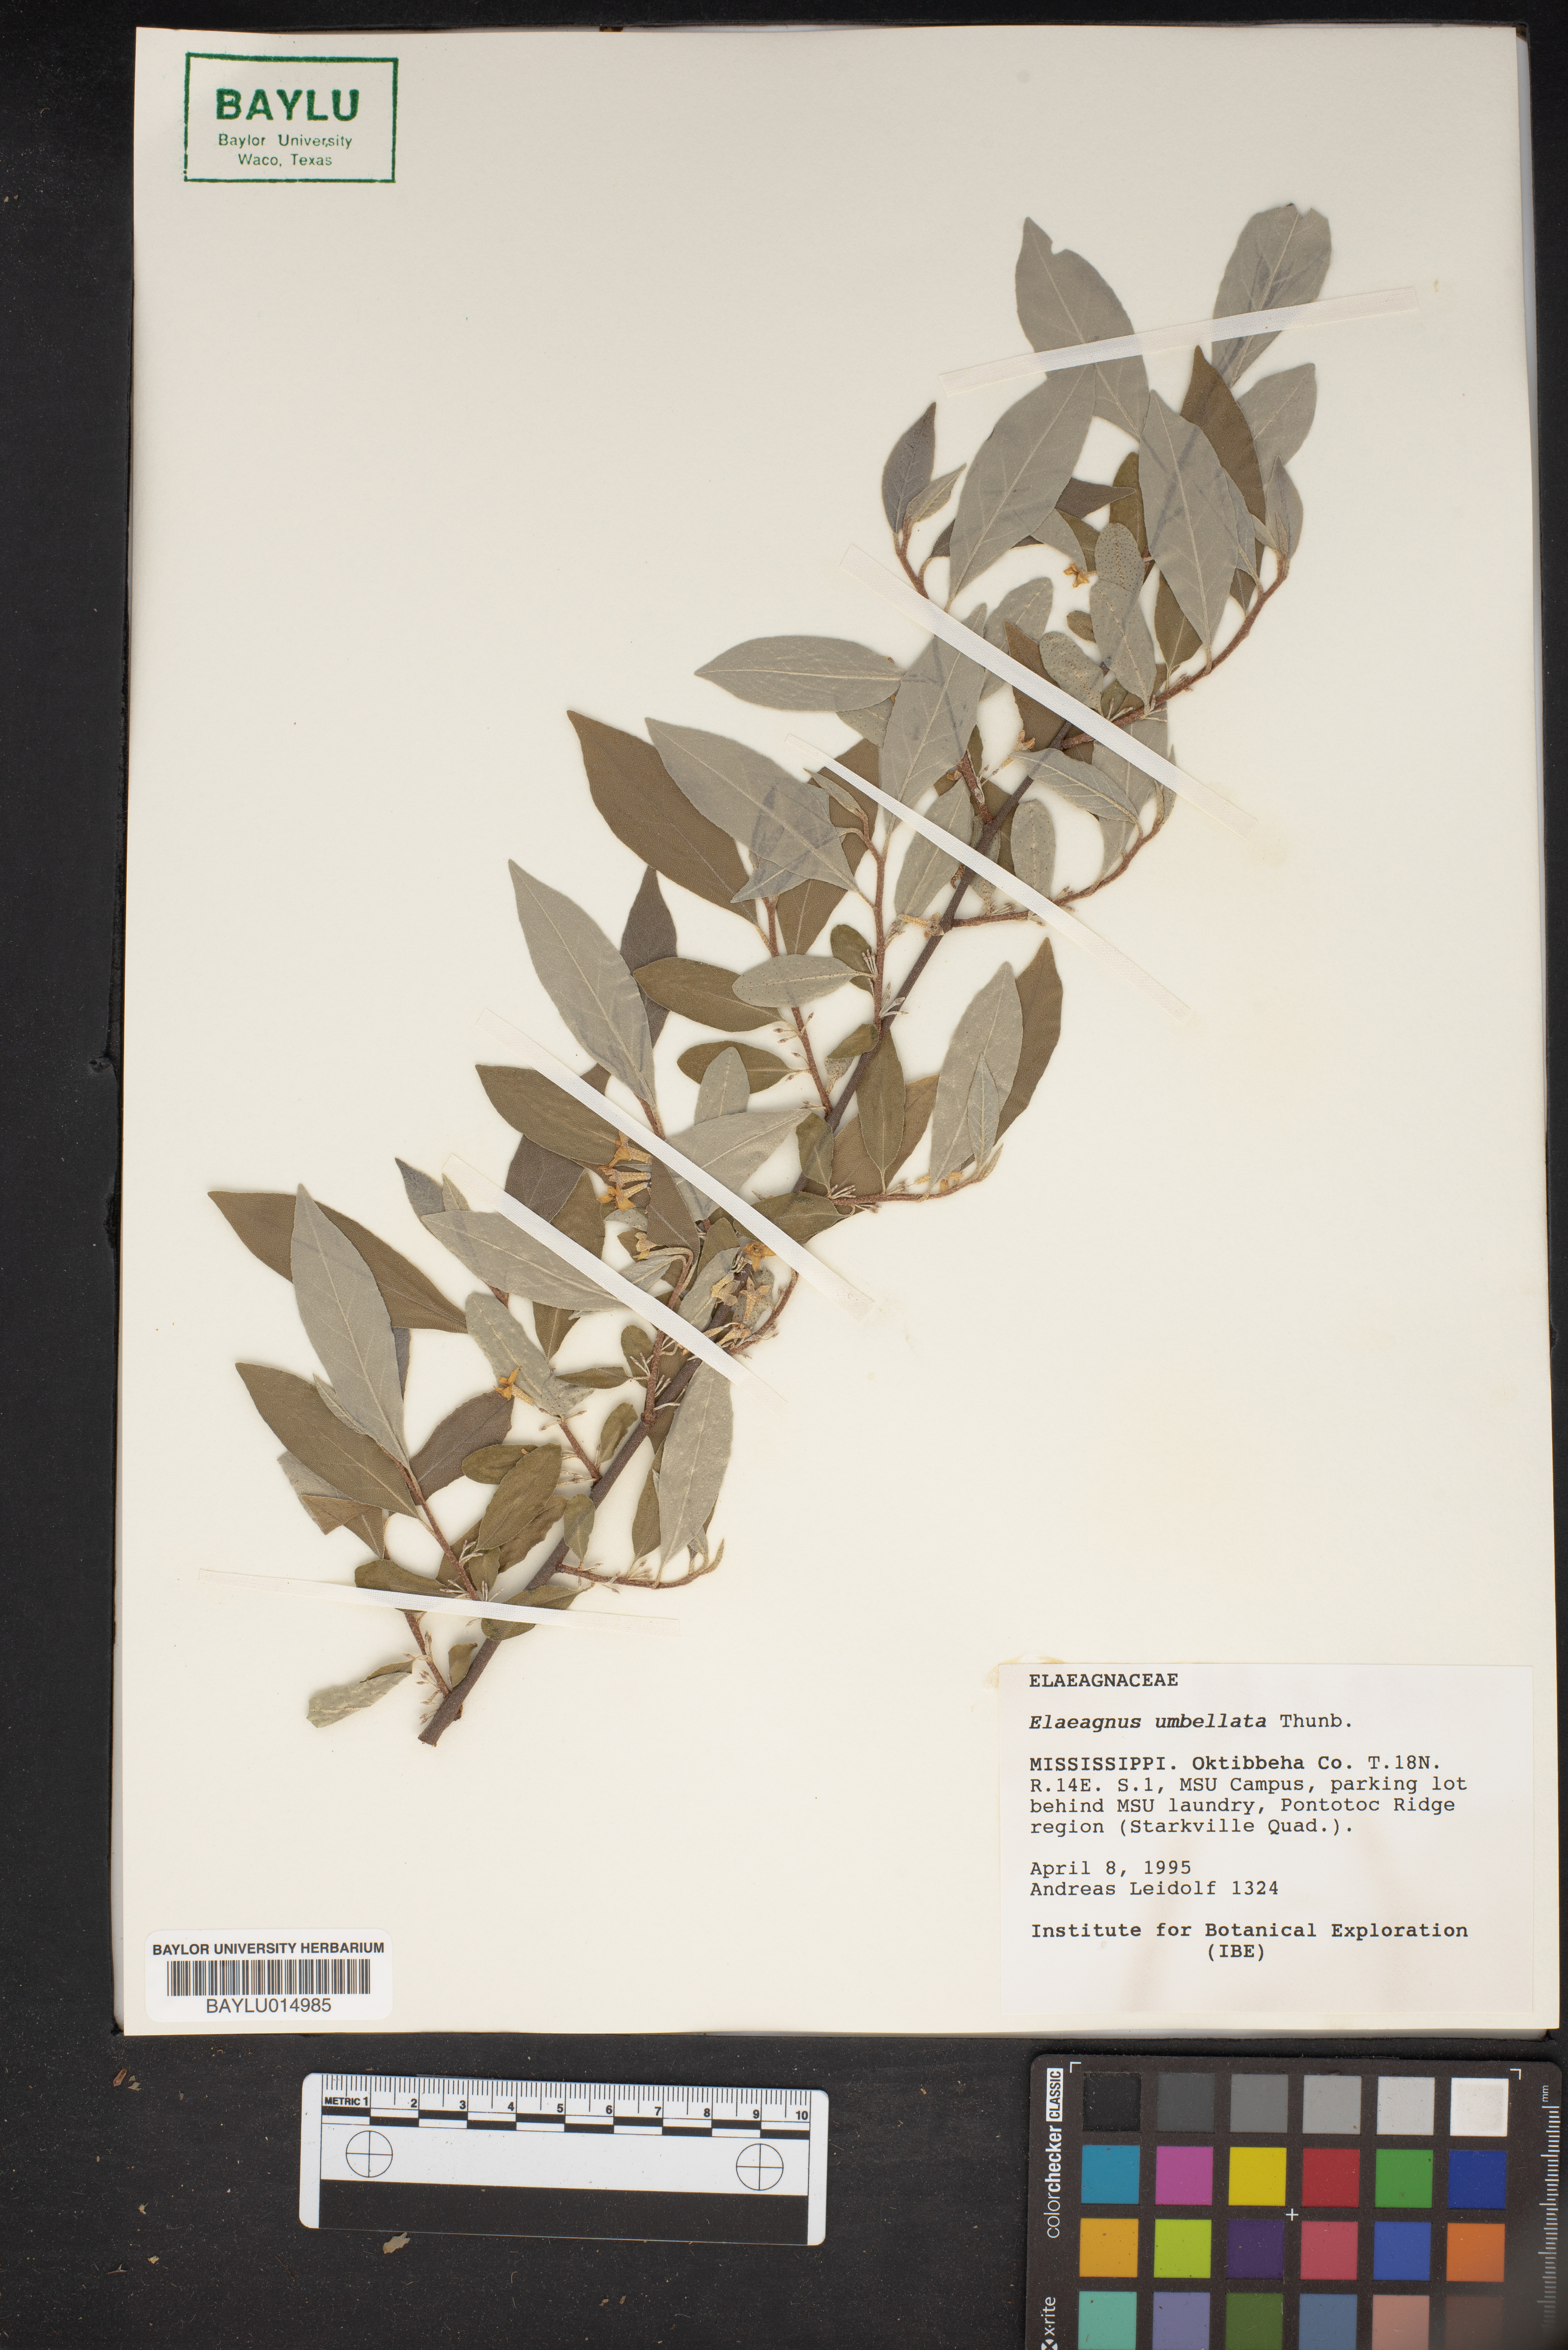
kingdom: Plantae
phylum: Tracheophyta
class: Magnoliopsida
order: Rosales
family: Elaeagnaceae
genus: Elaeagnus
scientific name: Elaeagnus umbellata
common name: Autumn olive
